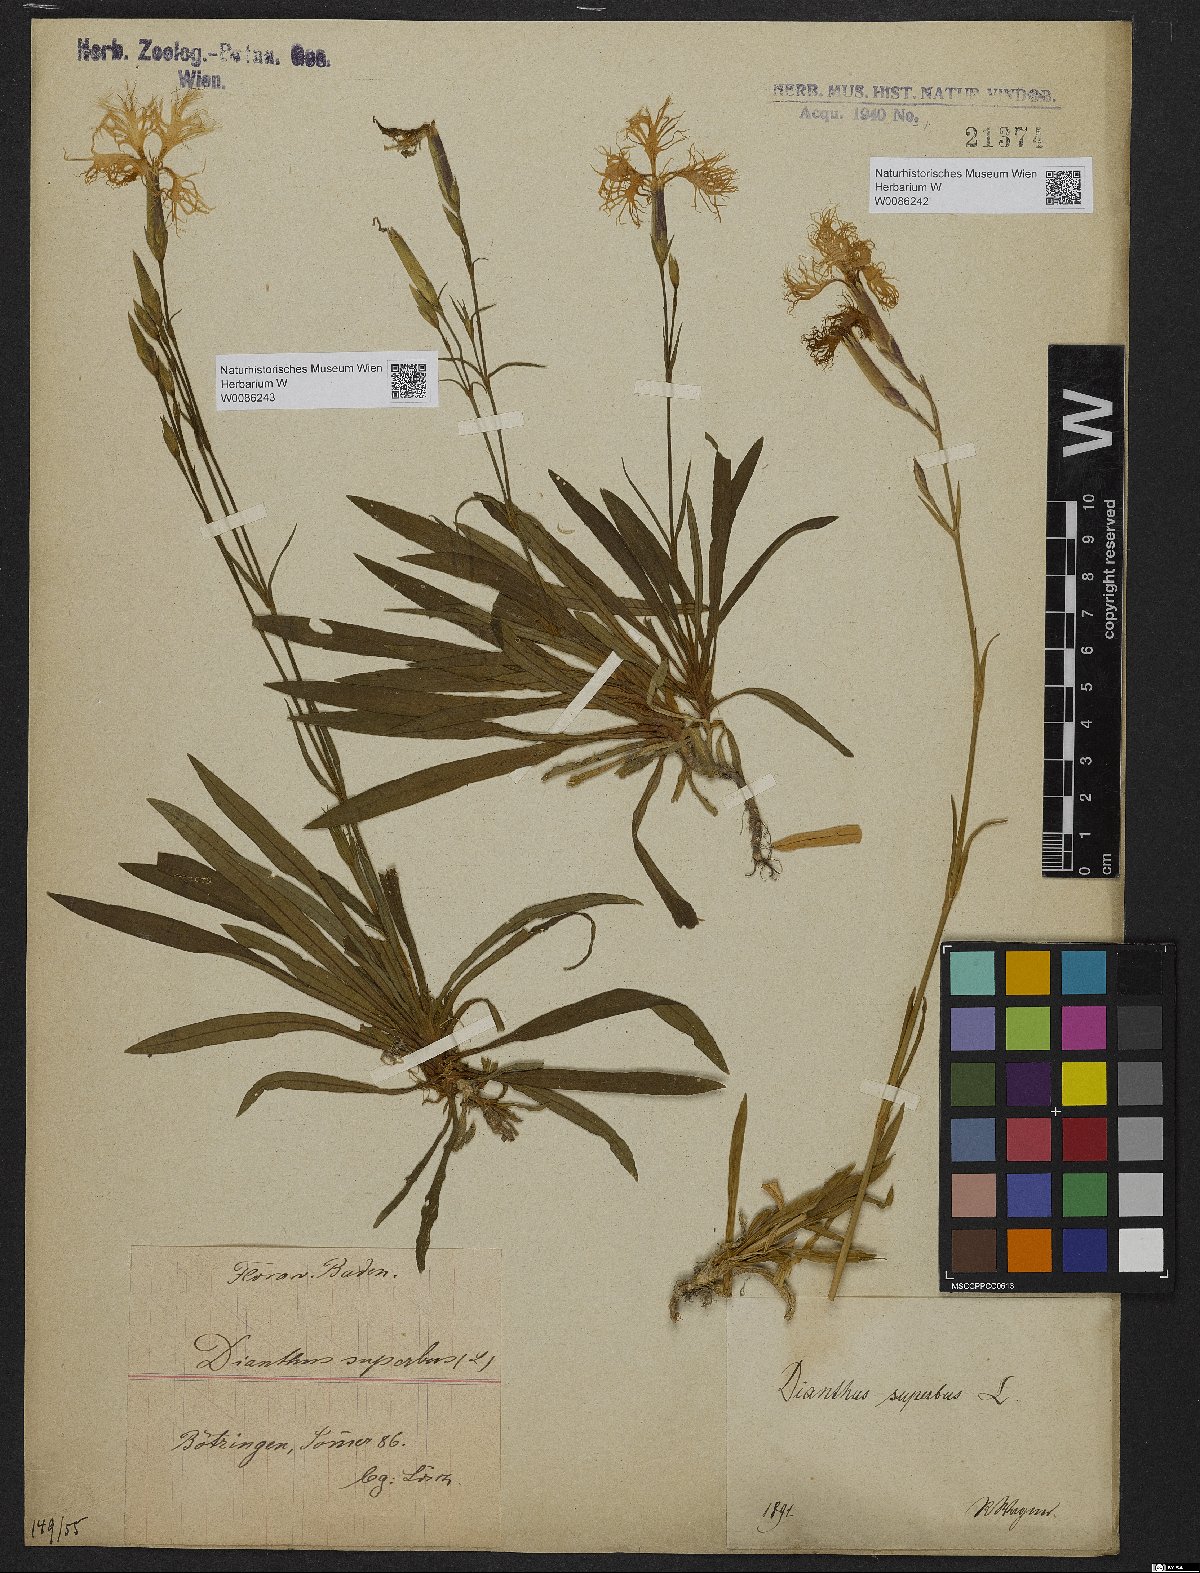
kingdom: Plantae
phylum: Tracheophyta
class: Magnoliopsida
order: Caryophyllales
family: Caryophyllaceae
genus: Dianthus
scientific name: Dianthus superbus
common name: Fringed pink
